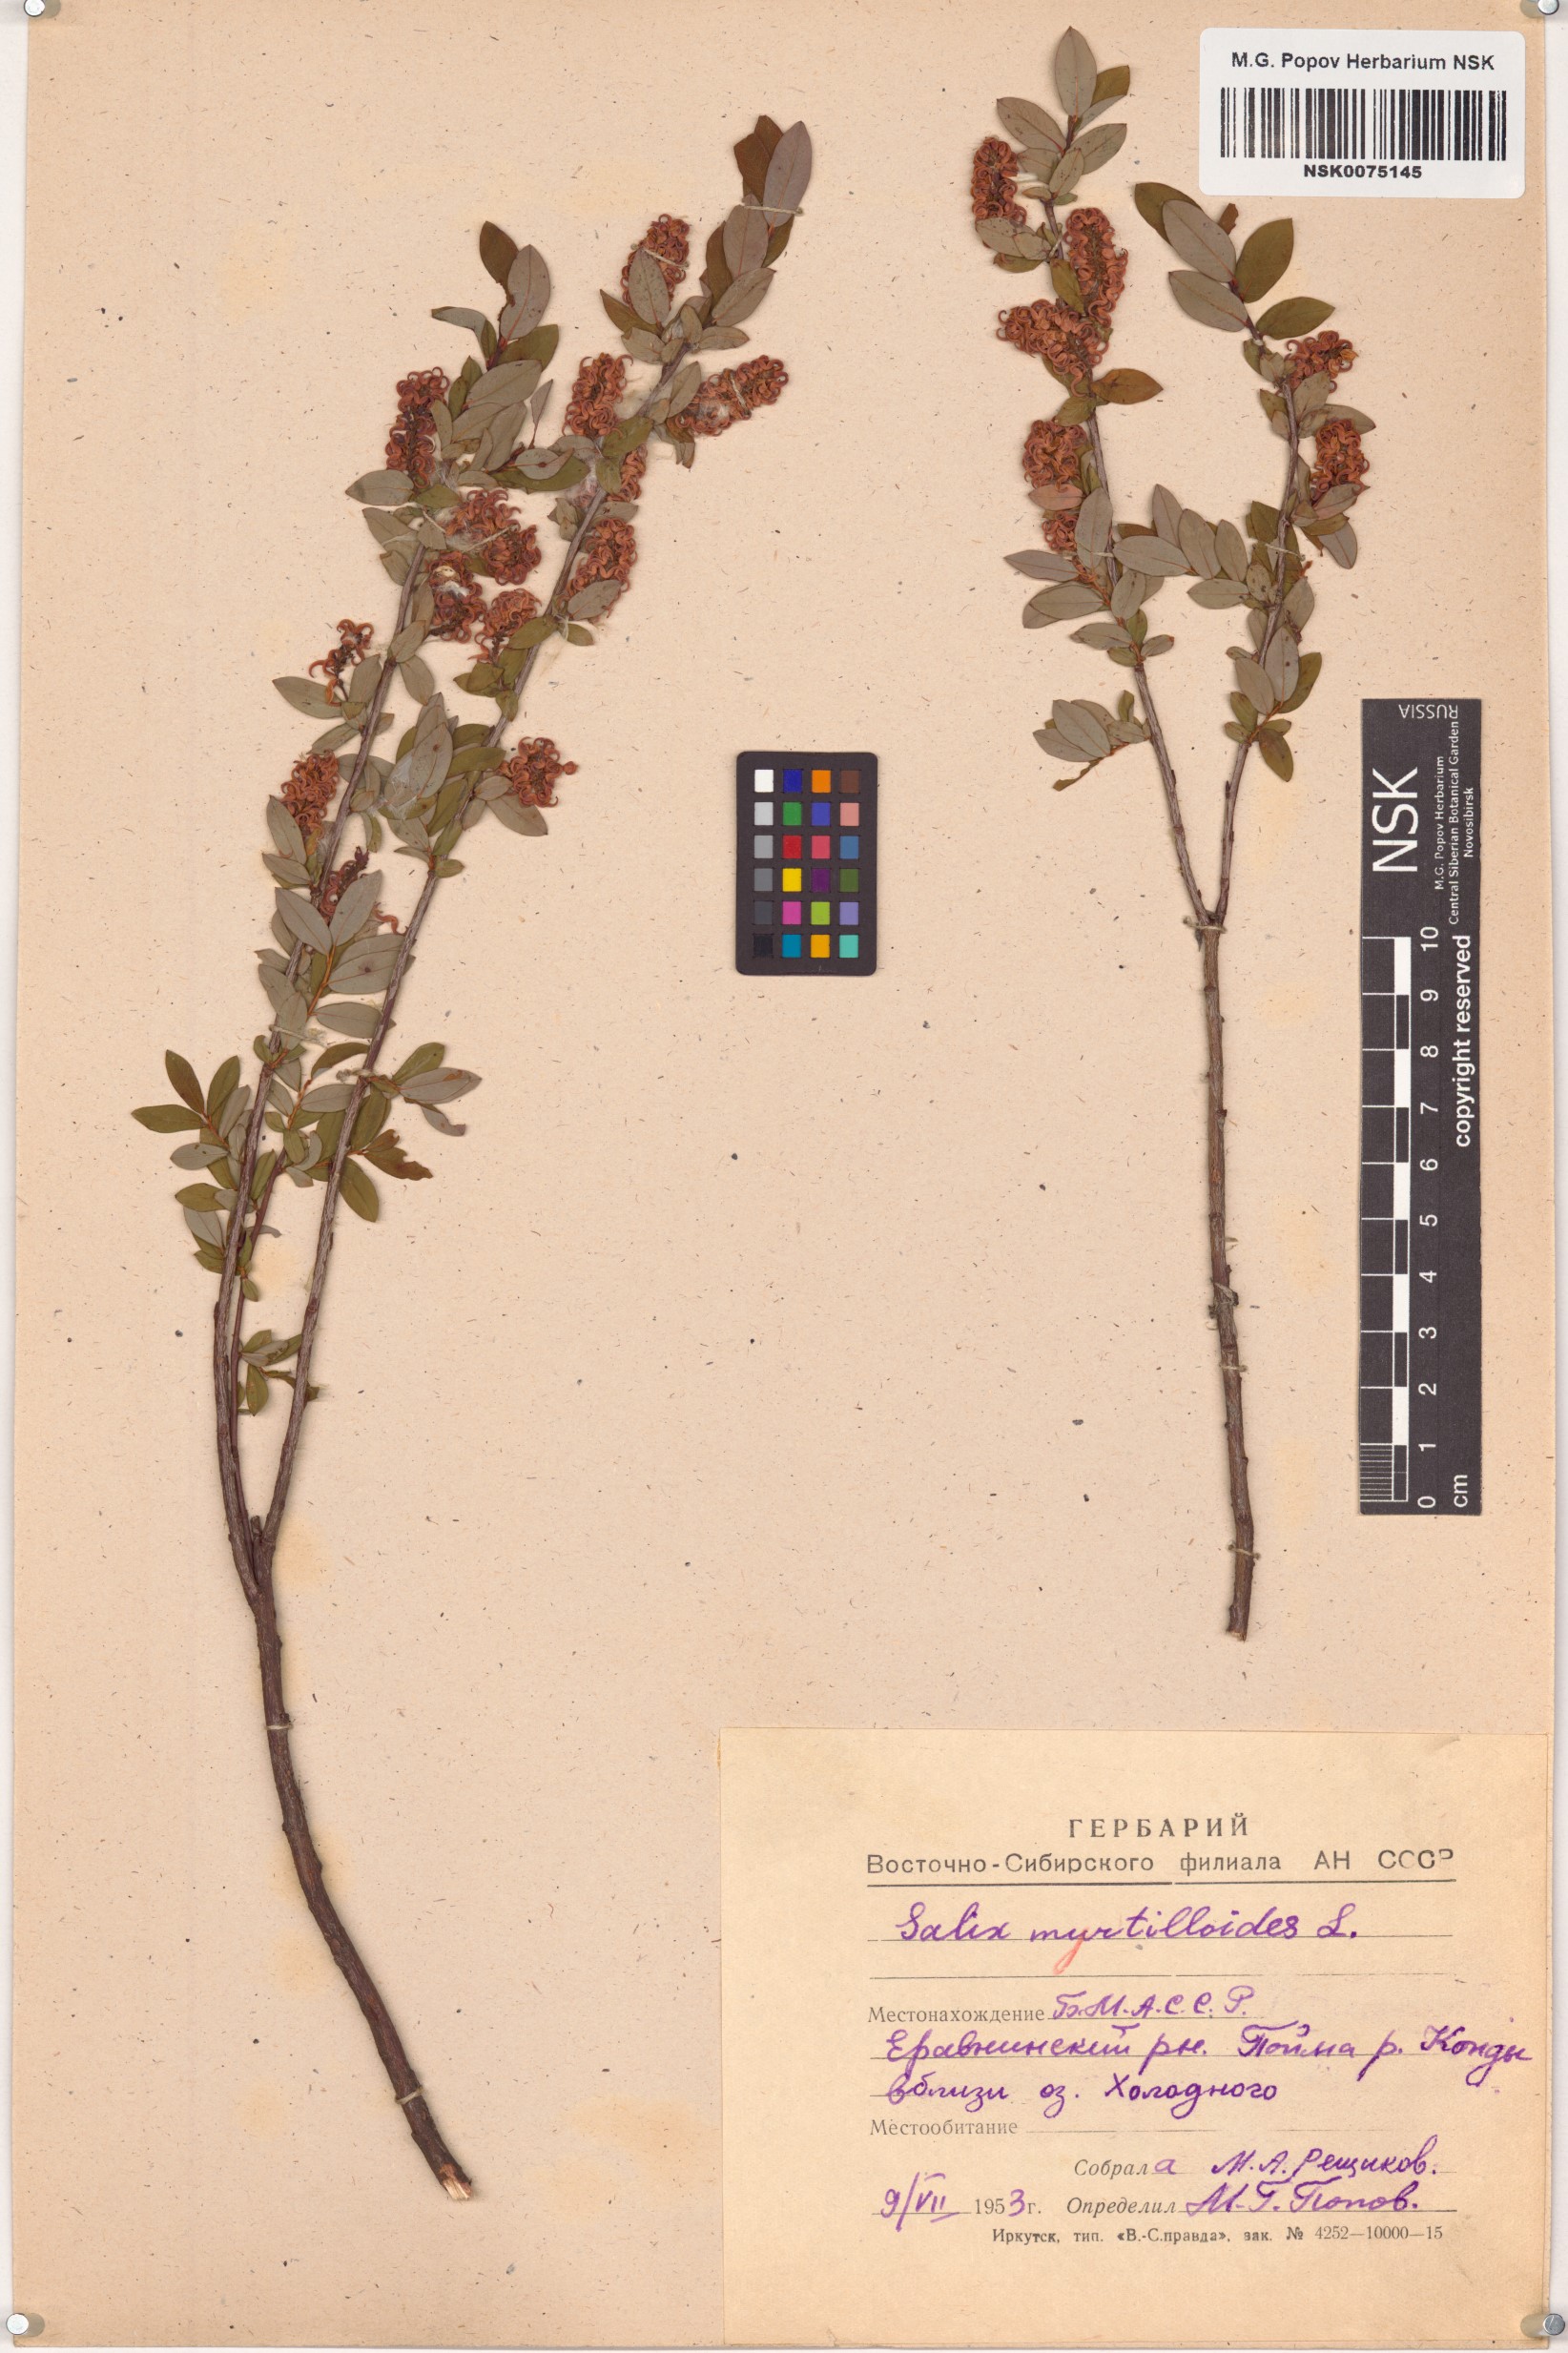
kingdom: Plantae
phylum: Tracheophyta
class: Magnoliopsida
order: Malpighiales
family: Salicaceae
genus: Salix
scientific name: Salix myrtilloides
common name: Myrtle-leaved willow
